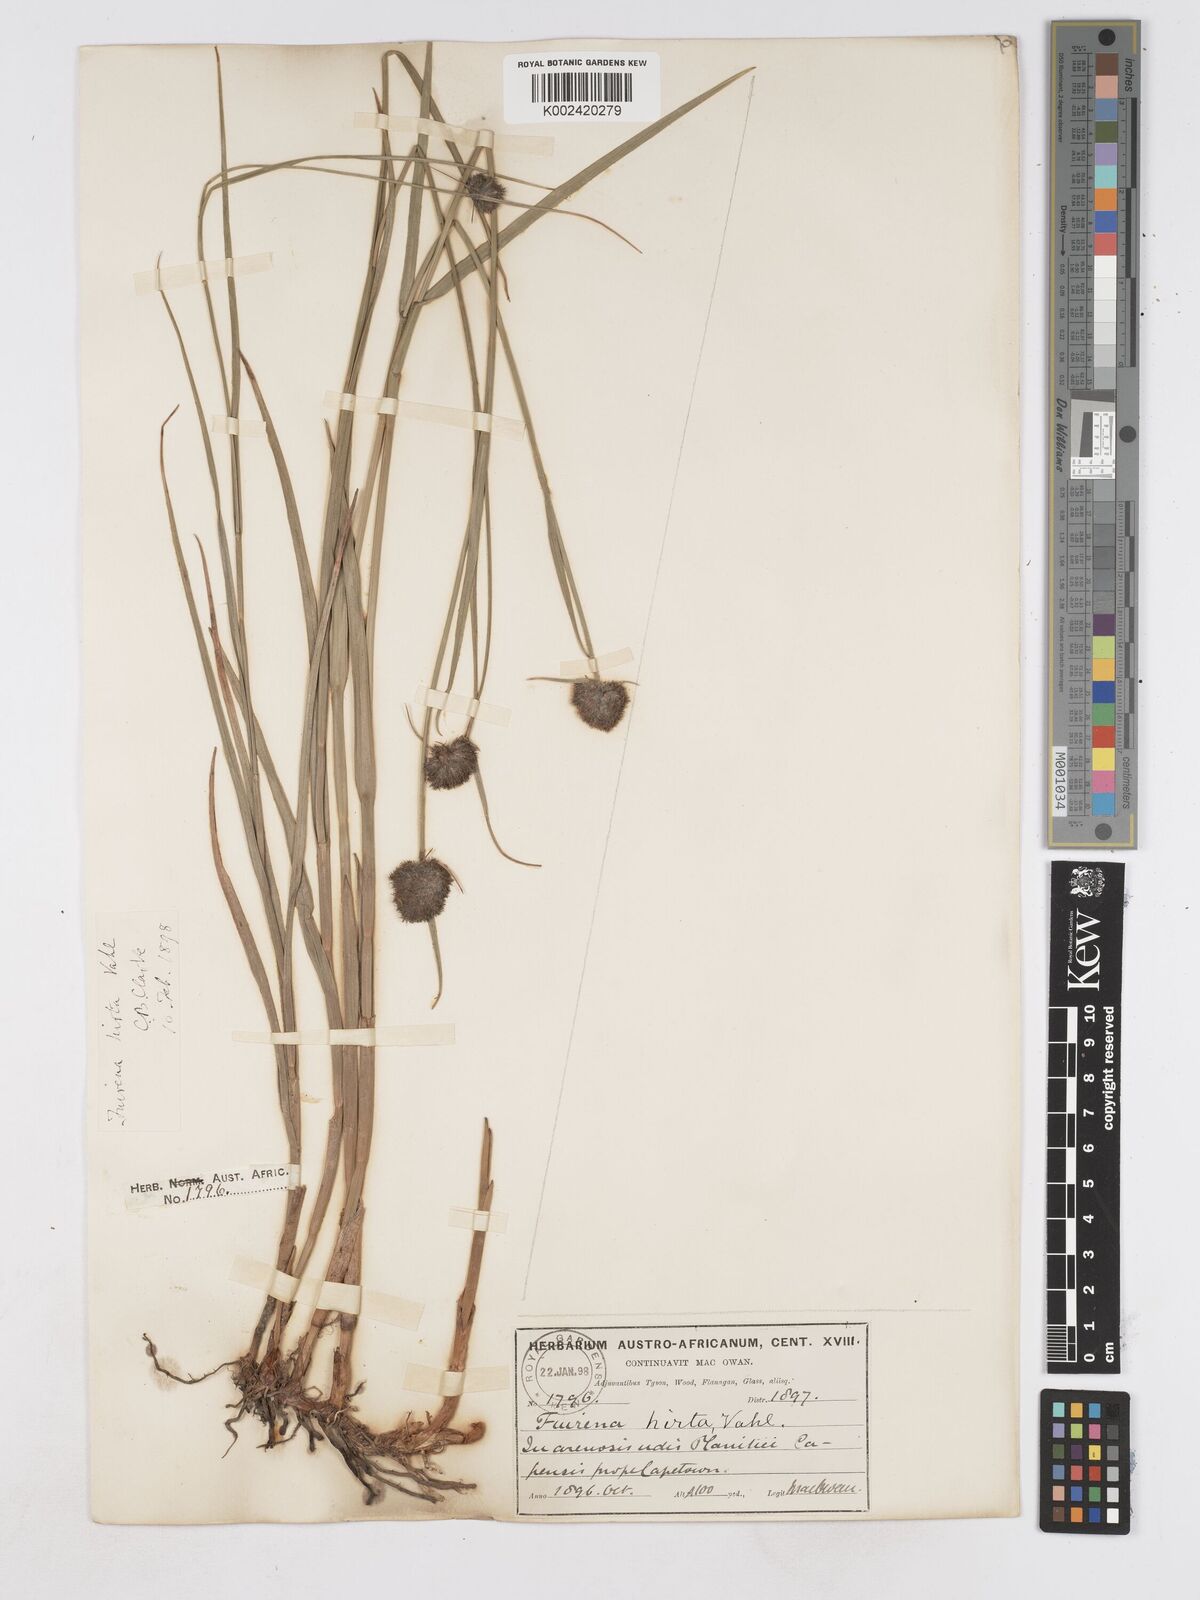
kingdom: Plantae
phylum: Tracheophyta
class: Liliopsida
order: Poales
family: Cyperaceae
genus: Fuirena
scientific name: Fuirena hirsuta
